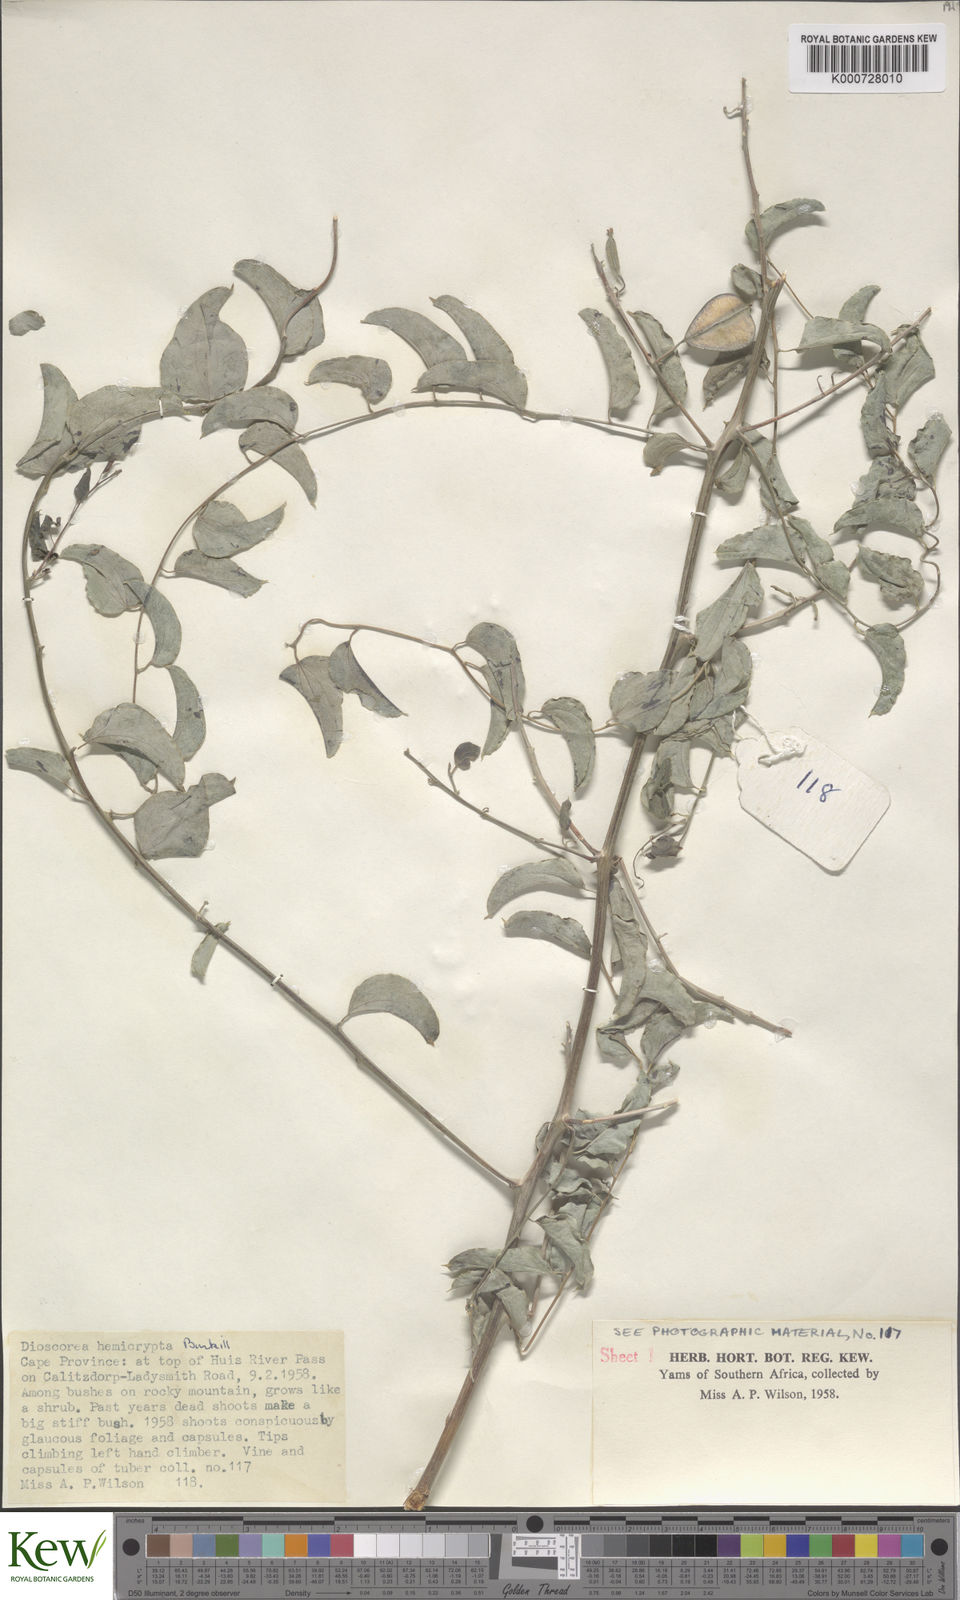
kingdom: Plantae
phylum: Tracheophyta
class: Liliopsida
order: Dioscoreales
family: Dioscoreaceae
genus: Dioscorea
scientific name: Dioscorea hemicrypta
